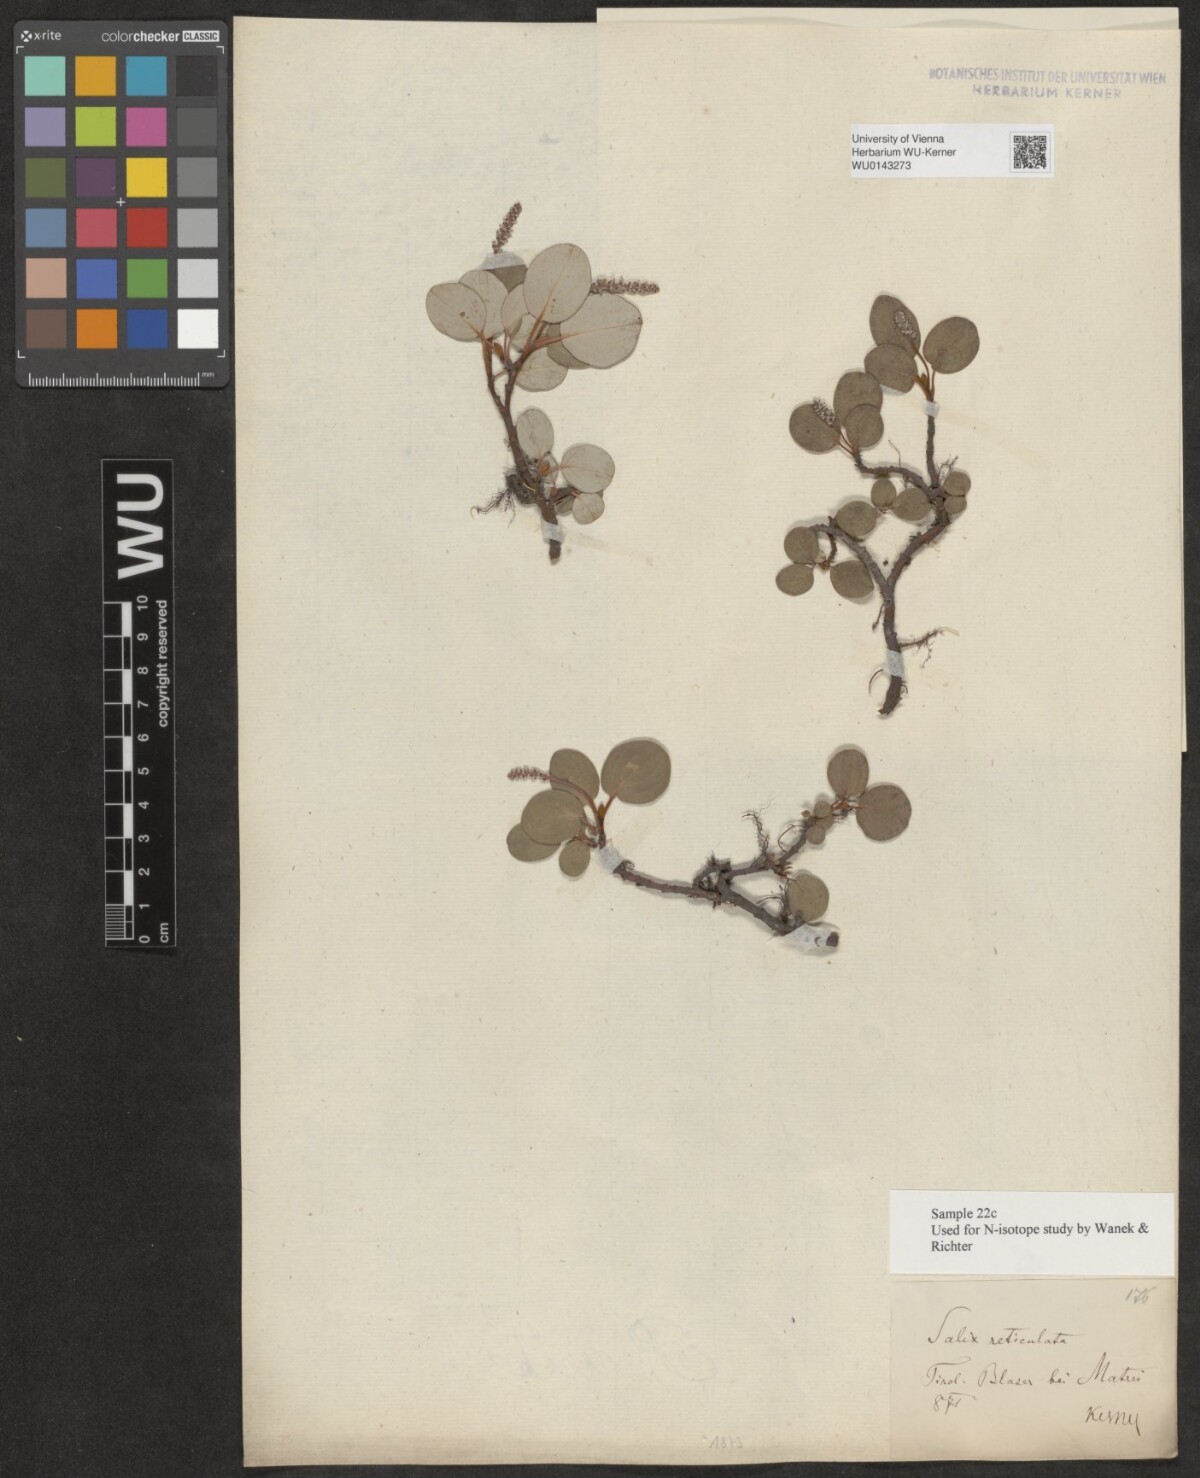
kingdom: Plantae
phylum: Tracheophyta
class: Magnoliopsida
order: Malpighiales
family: Salicaceae
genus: Salix
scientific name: Salix reticulata
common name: Net-leaved willow
